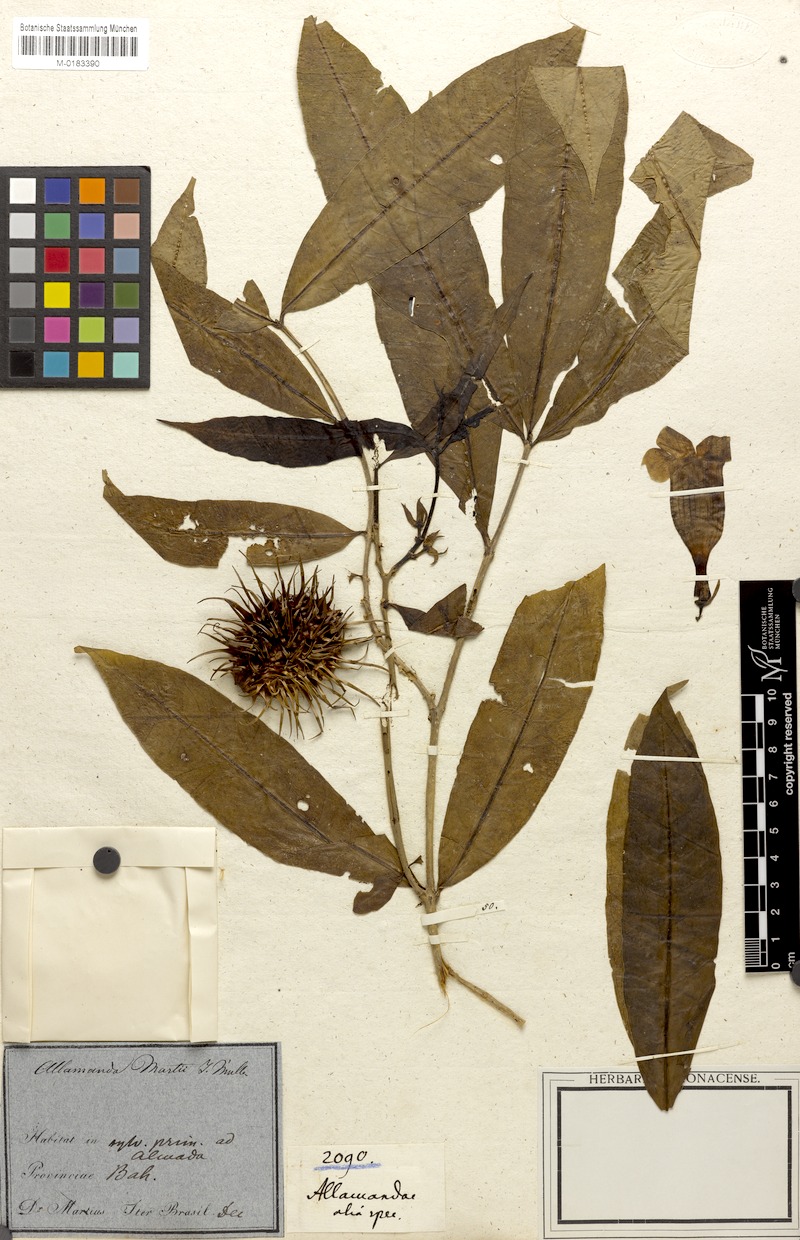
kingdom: Plantae
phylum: Tracheophyta
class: Magnoliopsida
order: Gentianales
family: Apocynaceae
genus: Allamanda
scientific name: Allamanda martii
